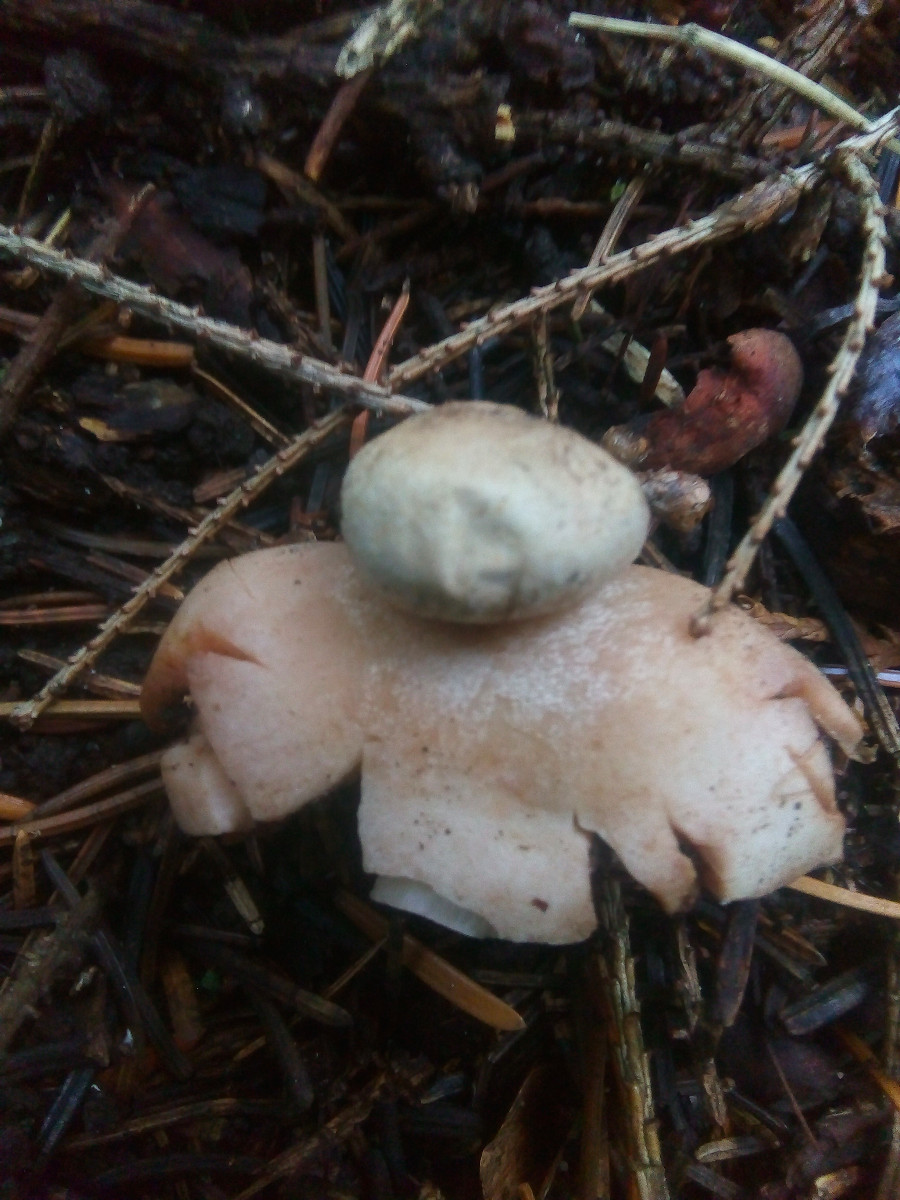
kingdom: Fungi
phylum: Basidiomycota
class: Agaricomycetes
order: Geastrales
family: Geastraceae
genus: Geastrum
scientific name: Geastrum rufescens
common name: kødfarvet stjernebold
